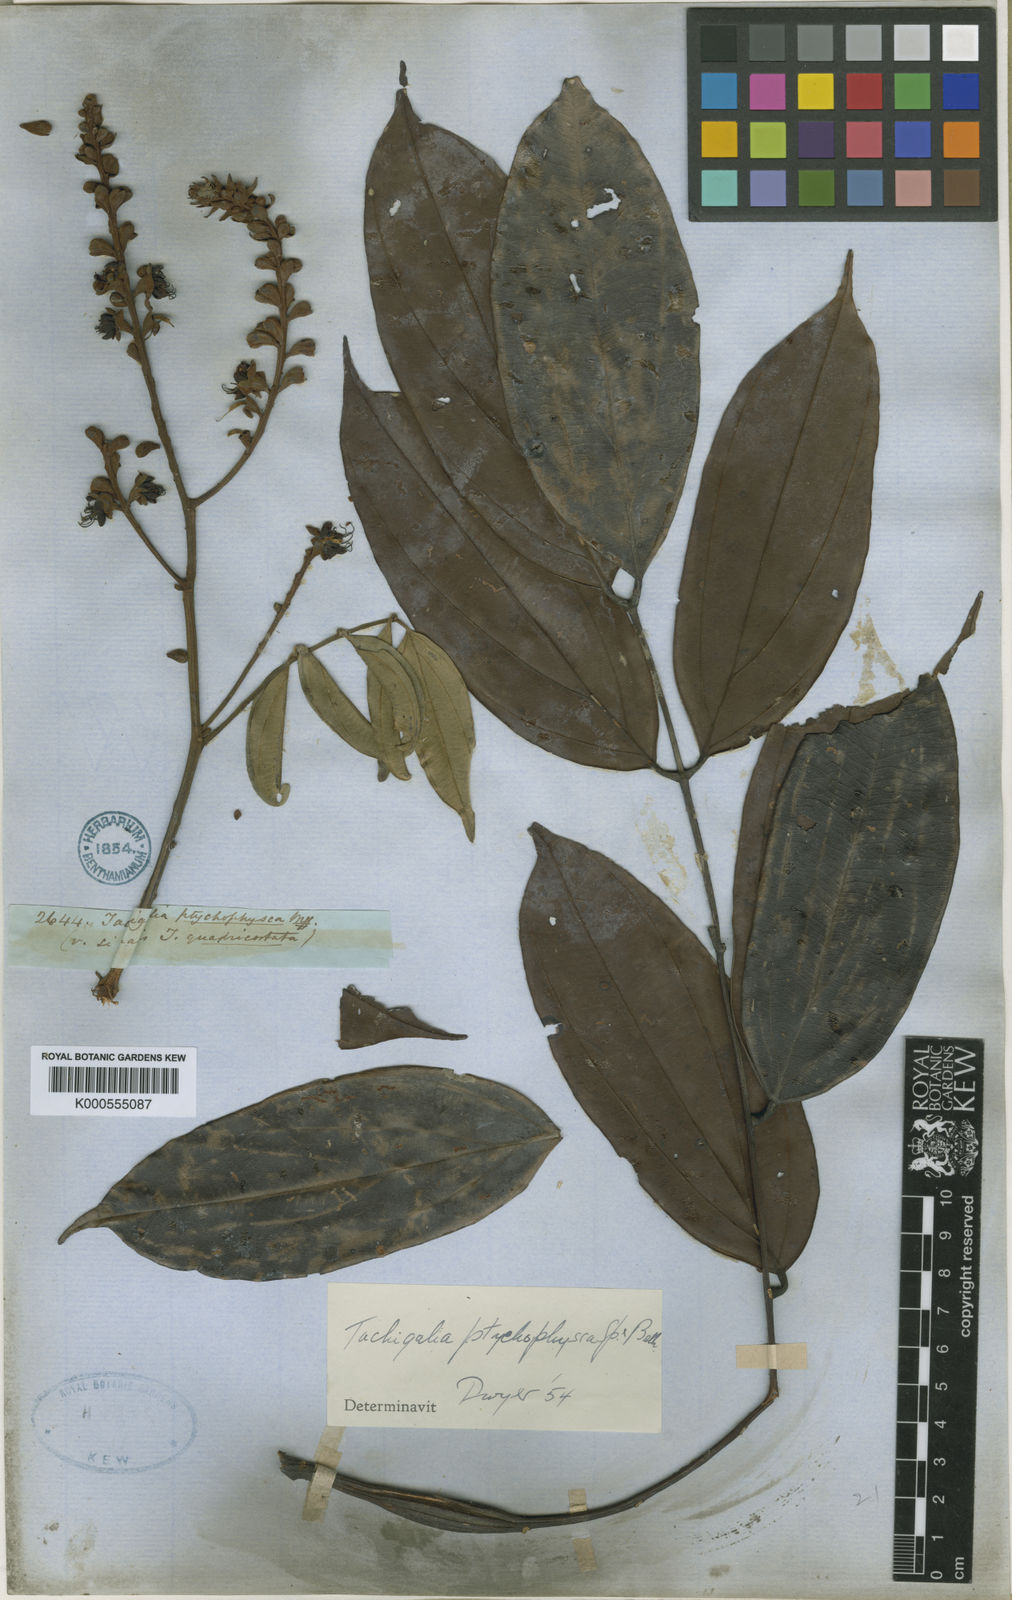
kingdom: Plantae
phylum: Tracheophyta
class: Magnoliopsida
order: Fabales
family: Fabaceae
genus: Tachigali
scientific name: Tachigali
